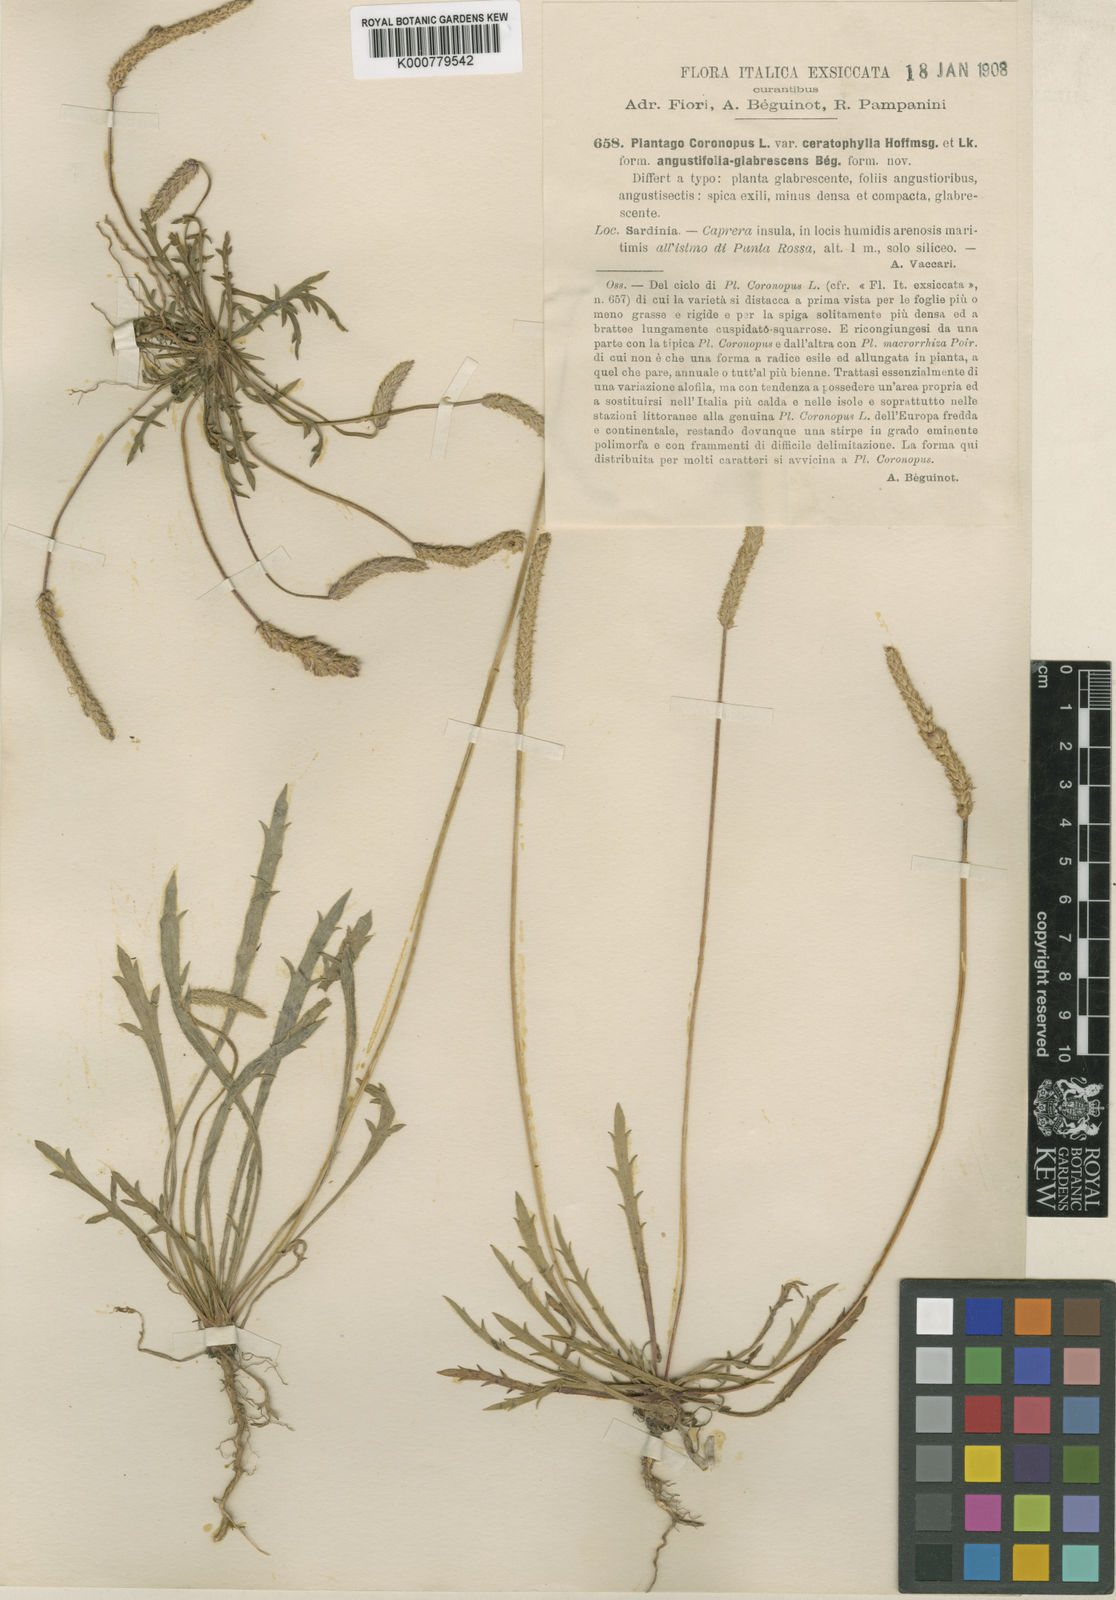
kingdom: Plantae
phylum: Tracheophyta
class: Magnoliopsida
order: Lamiales
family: Plantaginaceae
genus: Plantago
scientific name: Plantago coronopus
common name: Buck's-horn plantain
